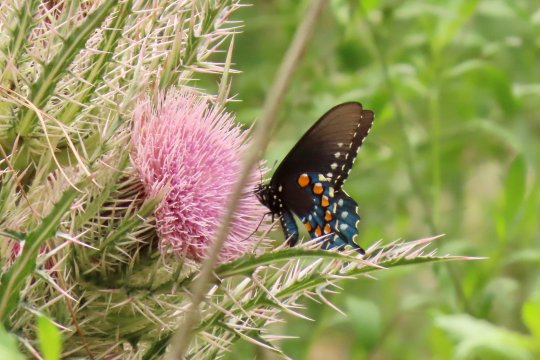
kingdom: Animalia
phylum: Arthropoda
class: Insecta
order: Lepidoptera
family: Papilionidae
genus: Battus
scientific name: Battus philenor
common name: Pipevine Swallowtail
